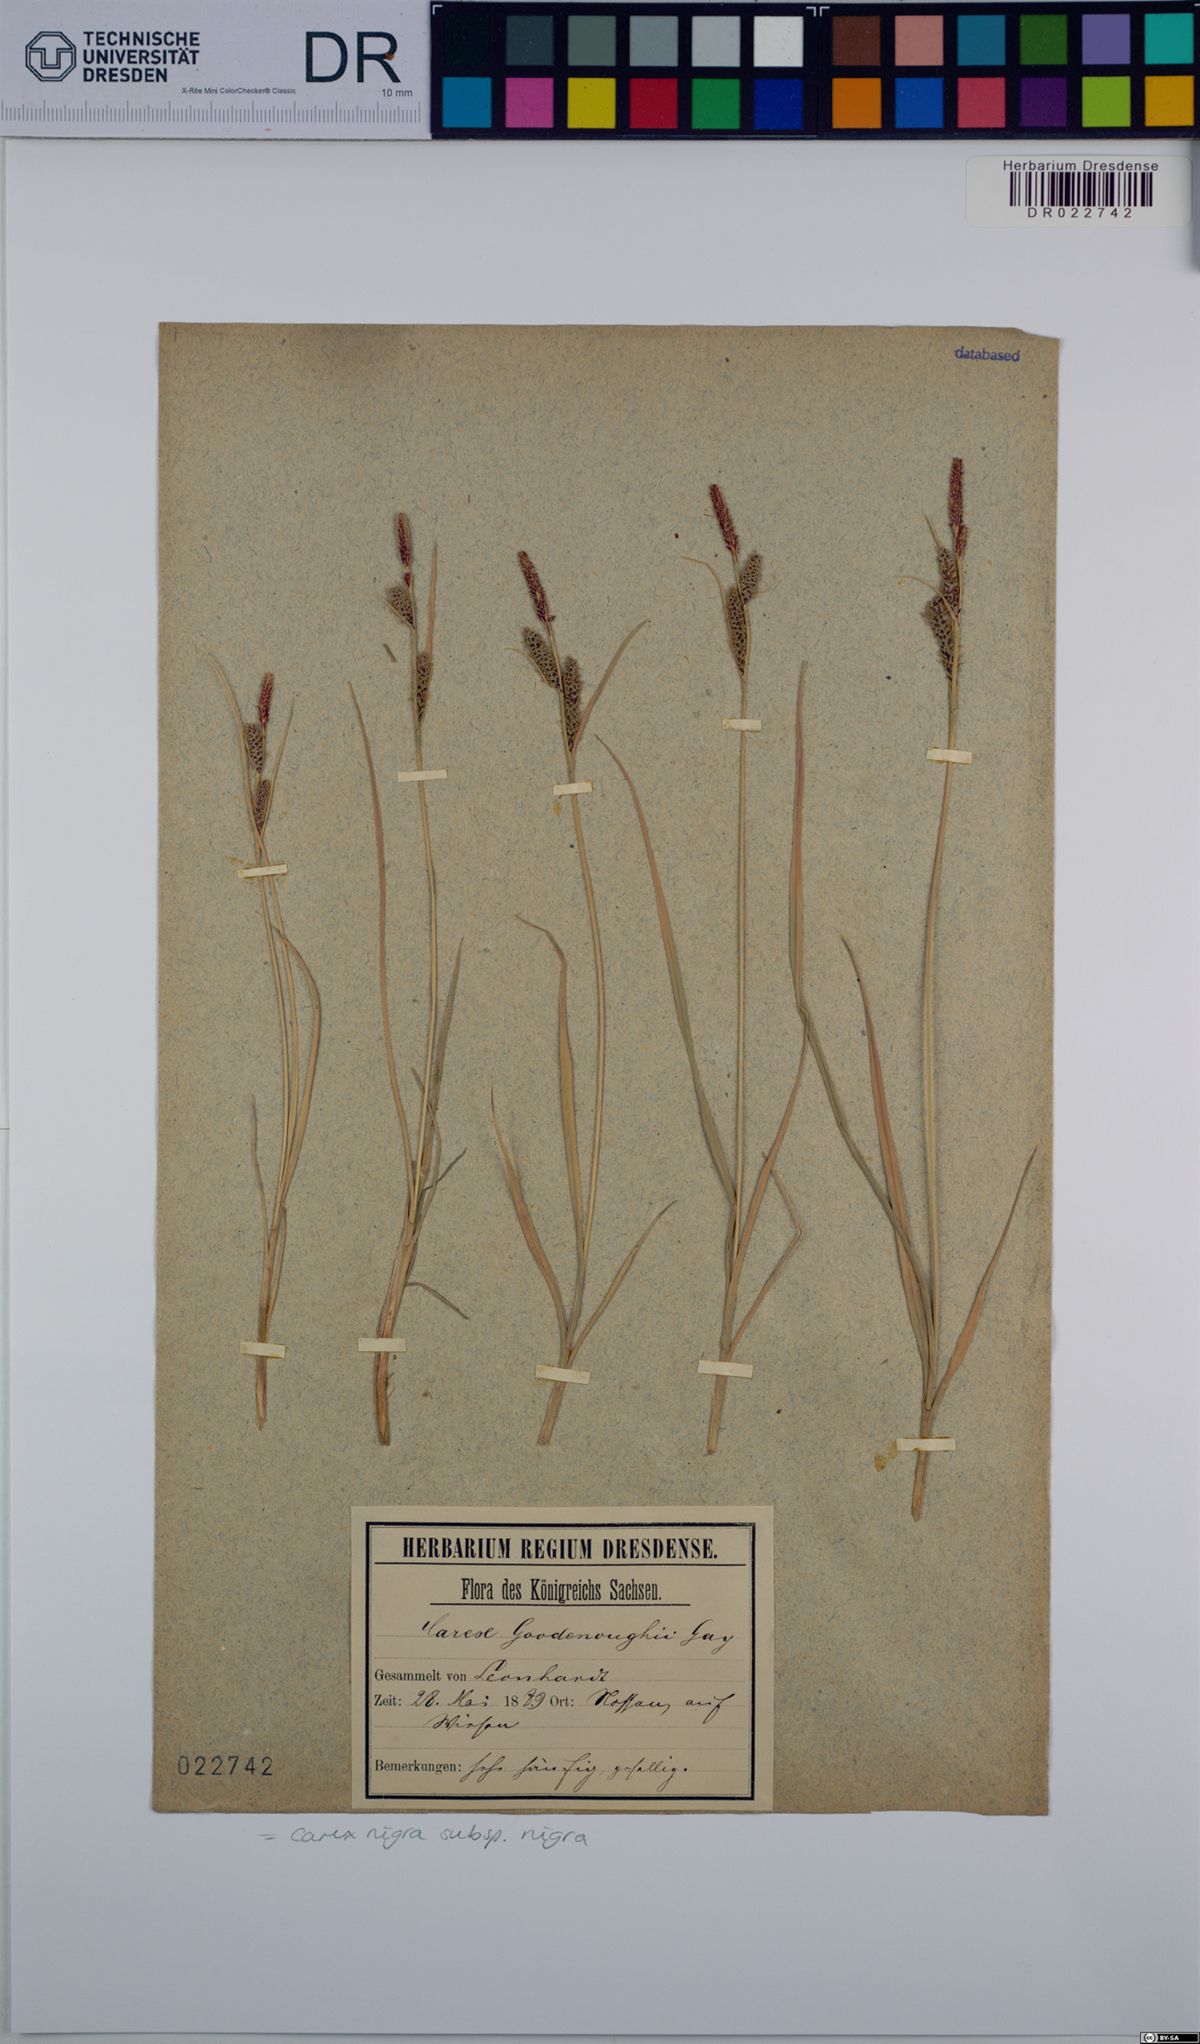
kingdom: Plantae
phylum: Tracheophyta
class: Liliopsida
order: Poales
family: Cyperaceae
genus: Carex
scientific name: Carex nigra
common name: Common sedge
